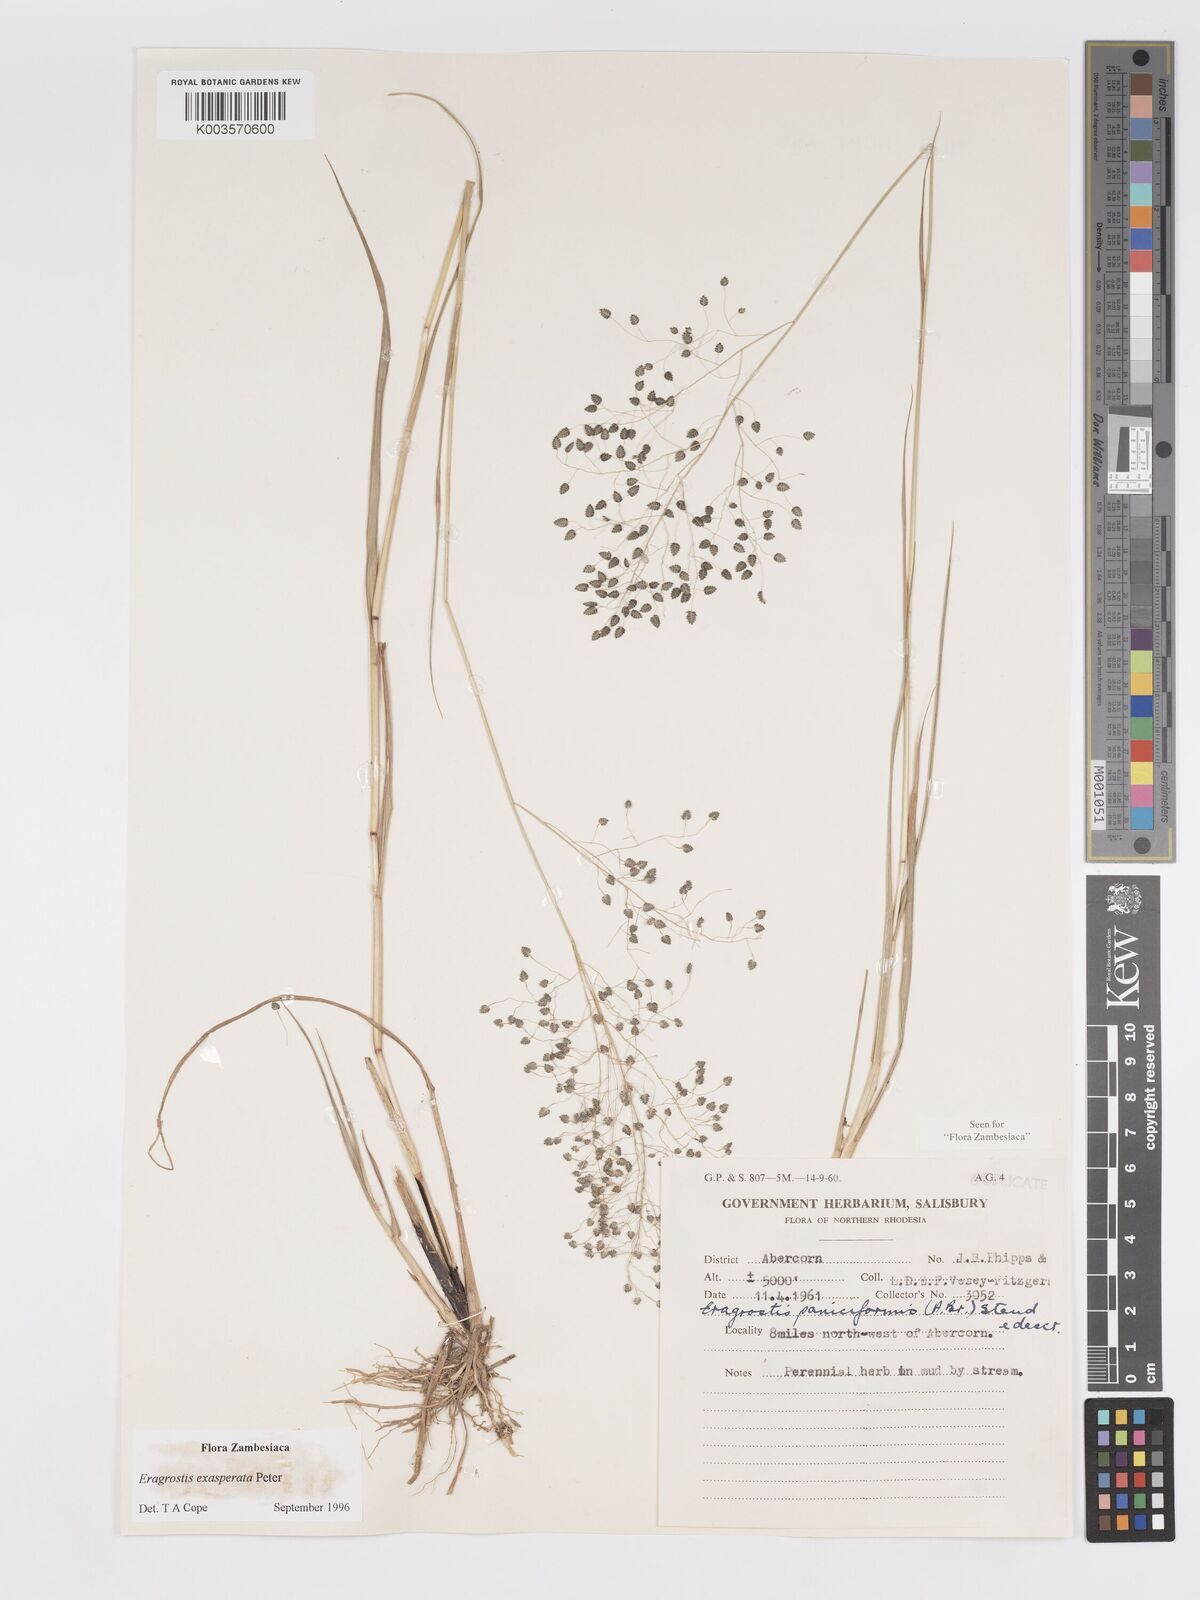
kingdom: Plantae
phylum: Tracheophyta
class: Liliopsida
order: Poales
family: Poaceae
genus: Eragrostis
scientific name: Eragrostis exasperata
